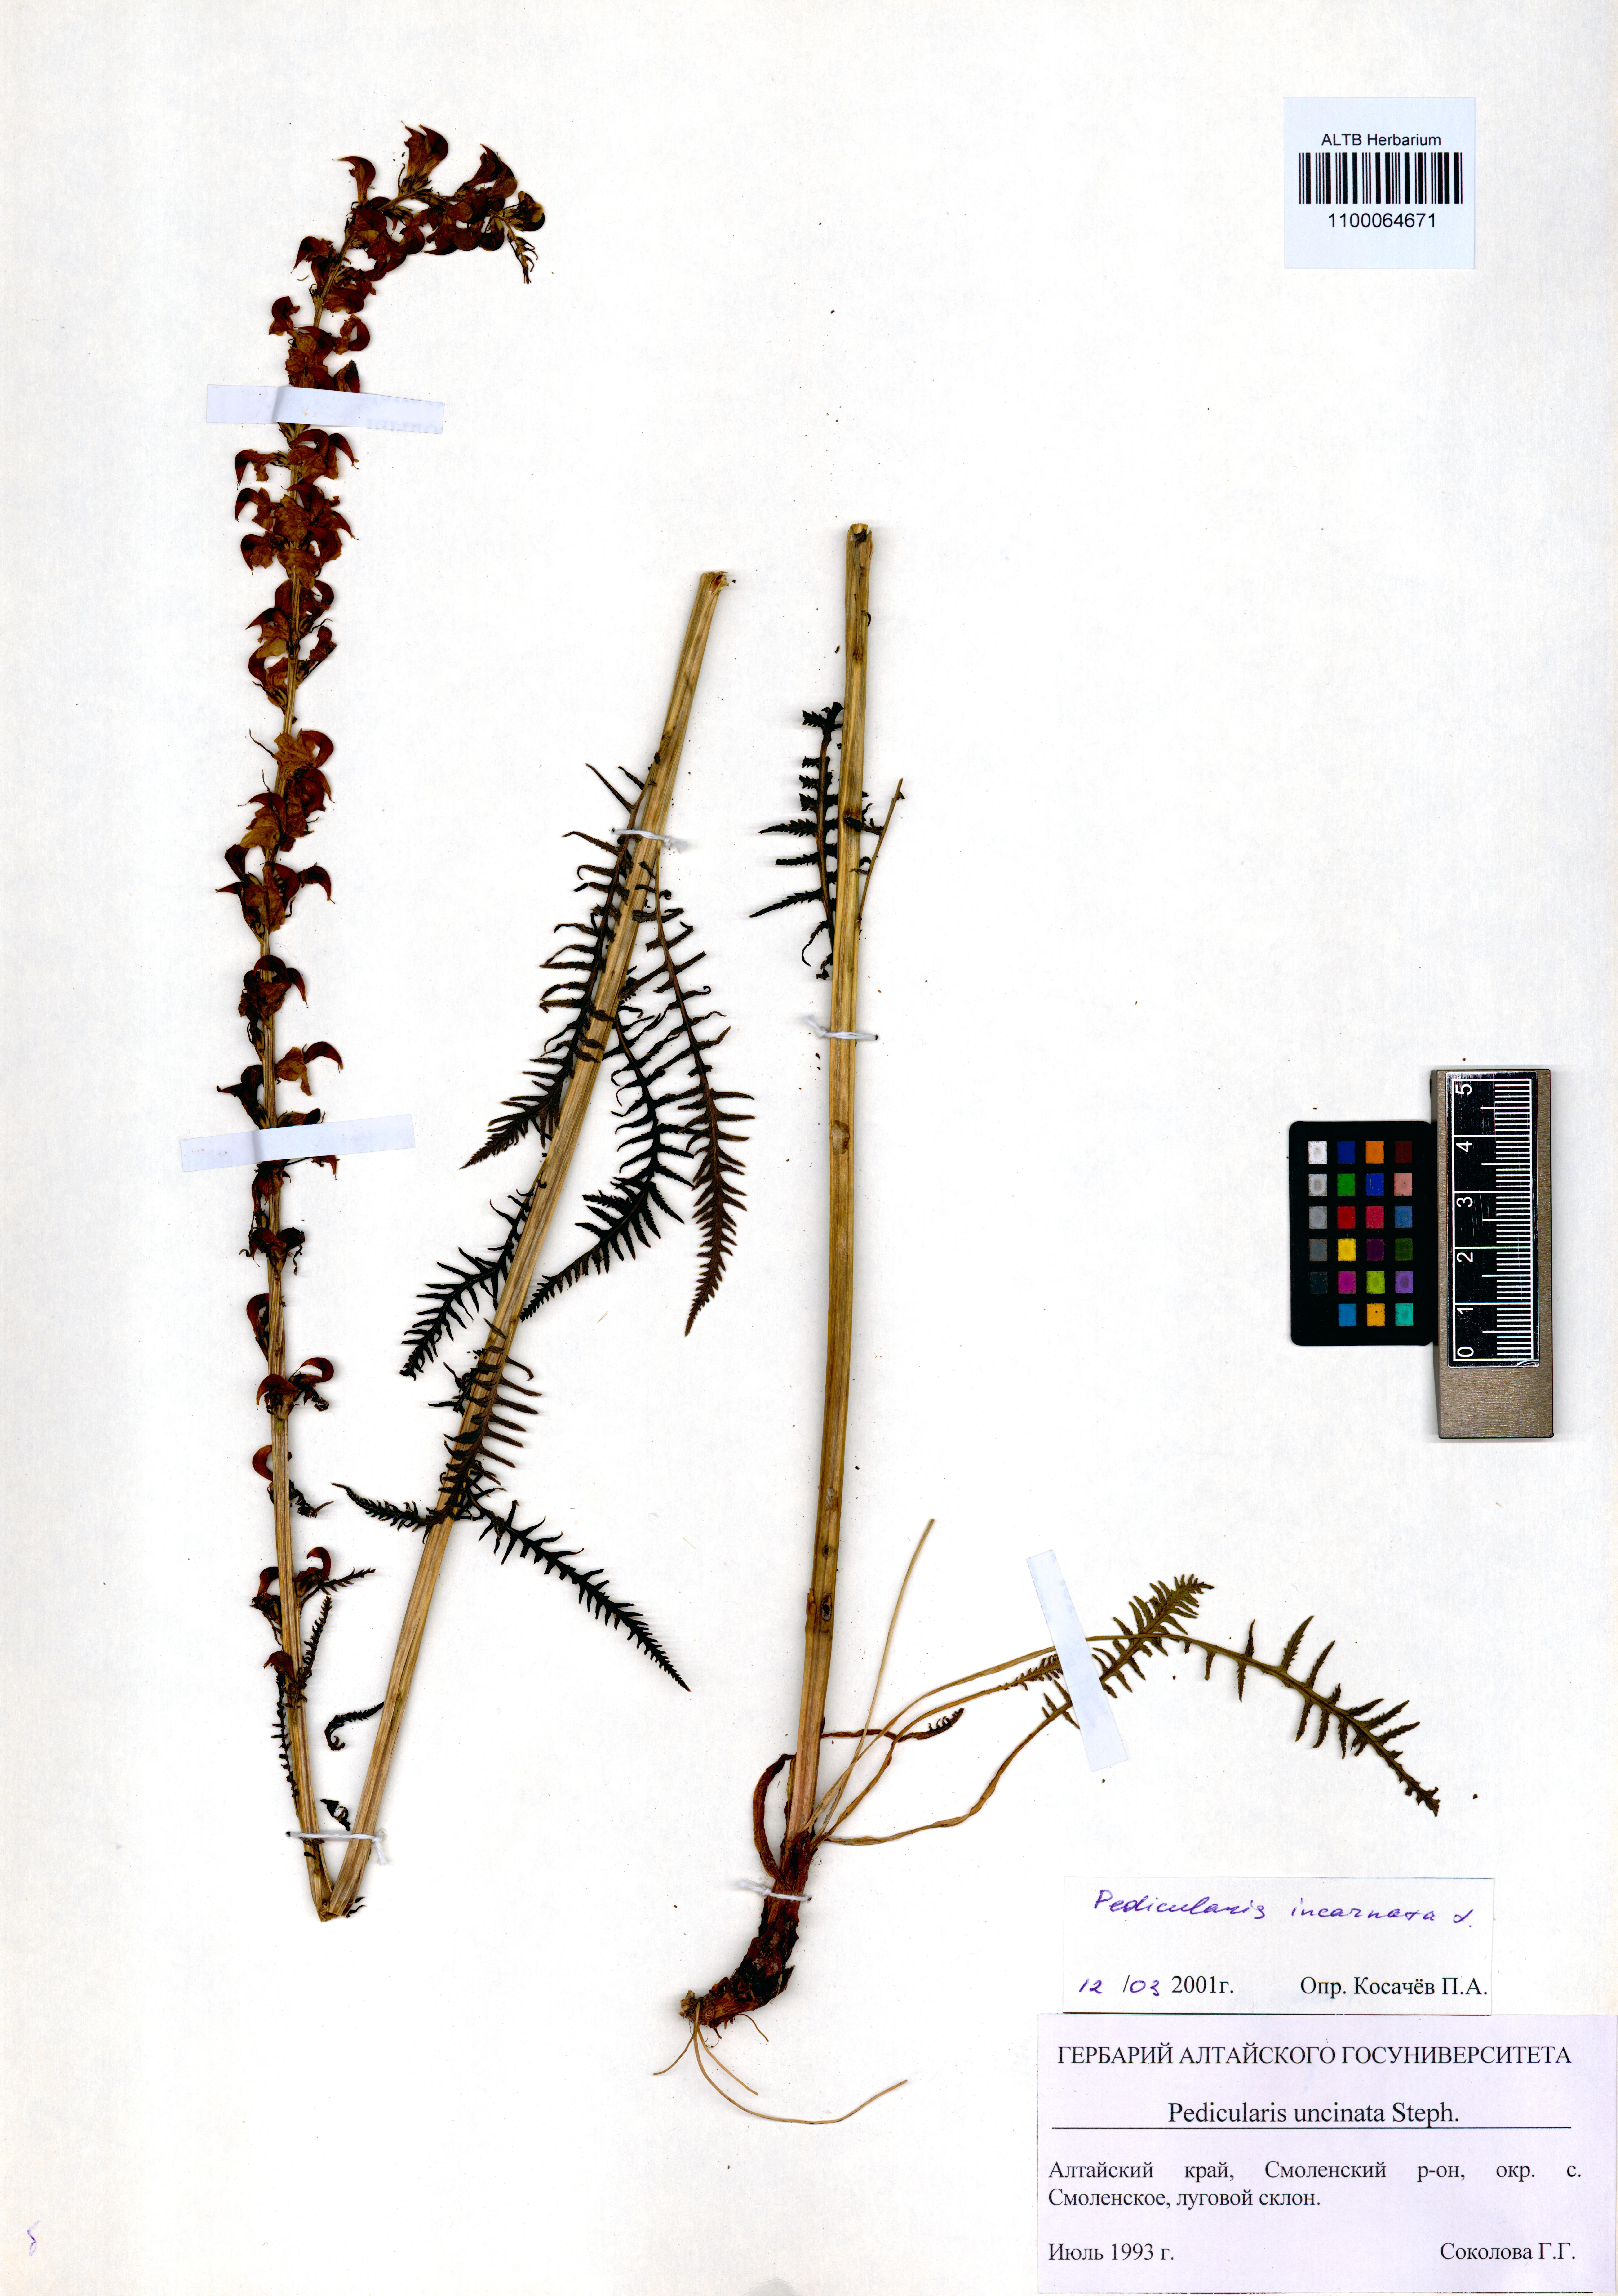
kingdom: Plantae
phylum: Tracheophyta
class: Magnoliopsida
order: Lamiales
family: Orobanchaceae
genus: Pedicularis
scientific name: Pedicularis incarnata
